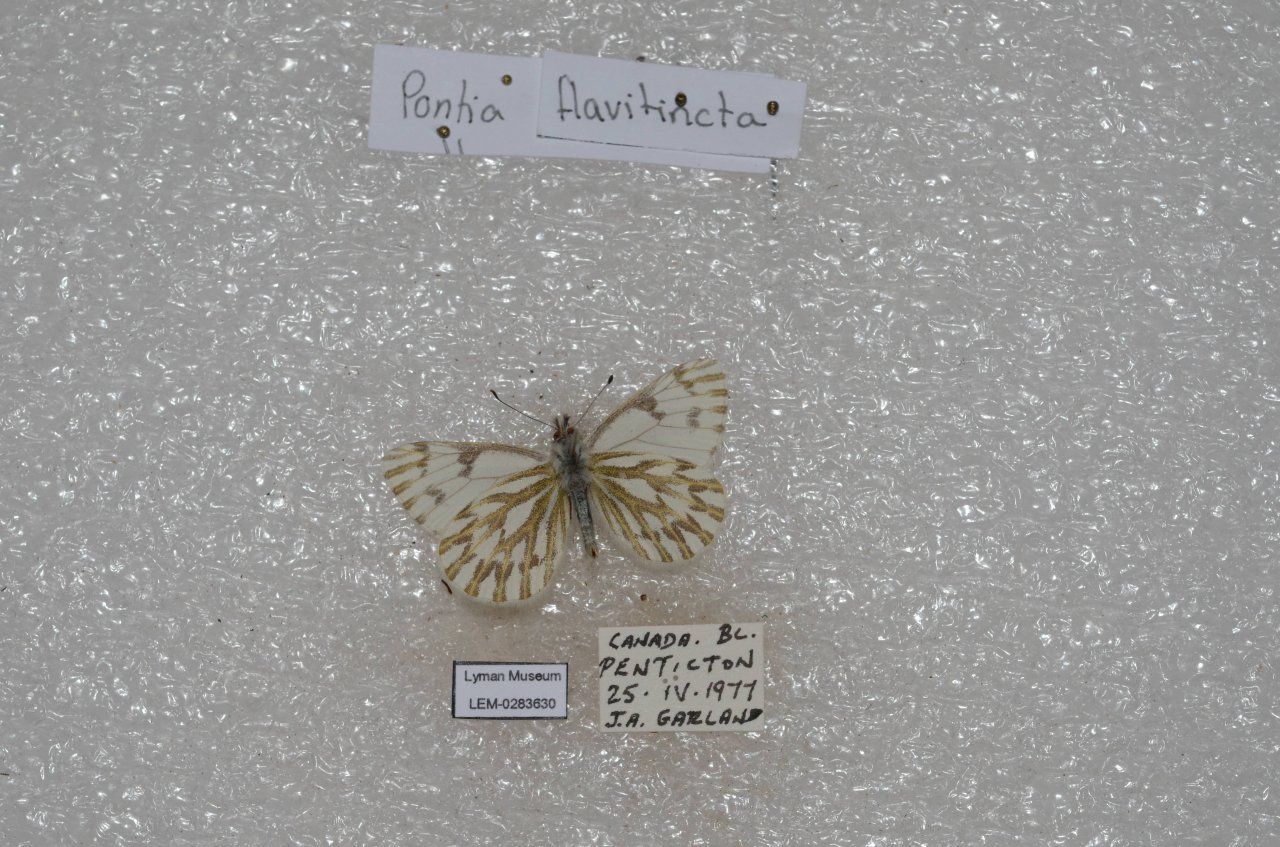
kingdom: Animalia
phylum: Arthropoda
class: Insecta
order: Lepidoptera
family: Pieridae
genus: Pontia
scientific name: Pontia sisymbrii
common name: Spring White
